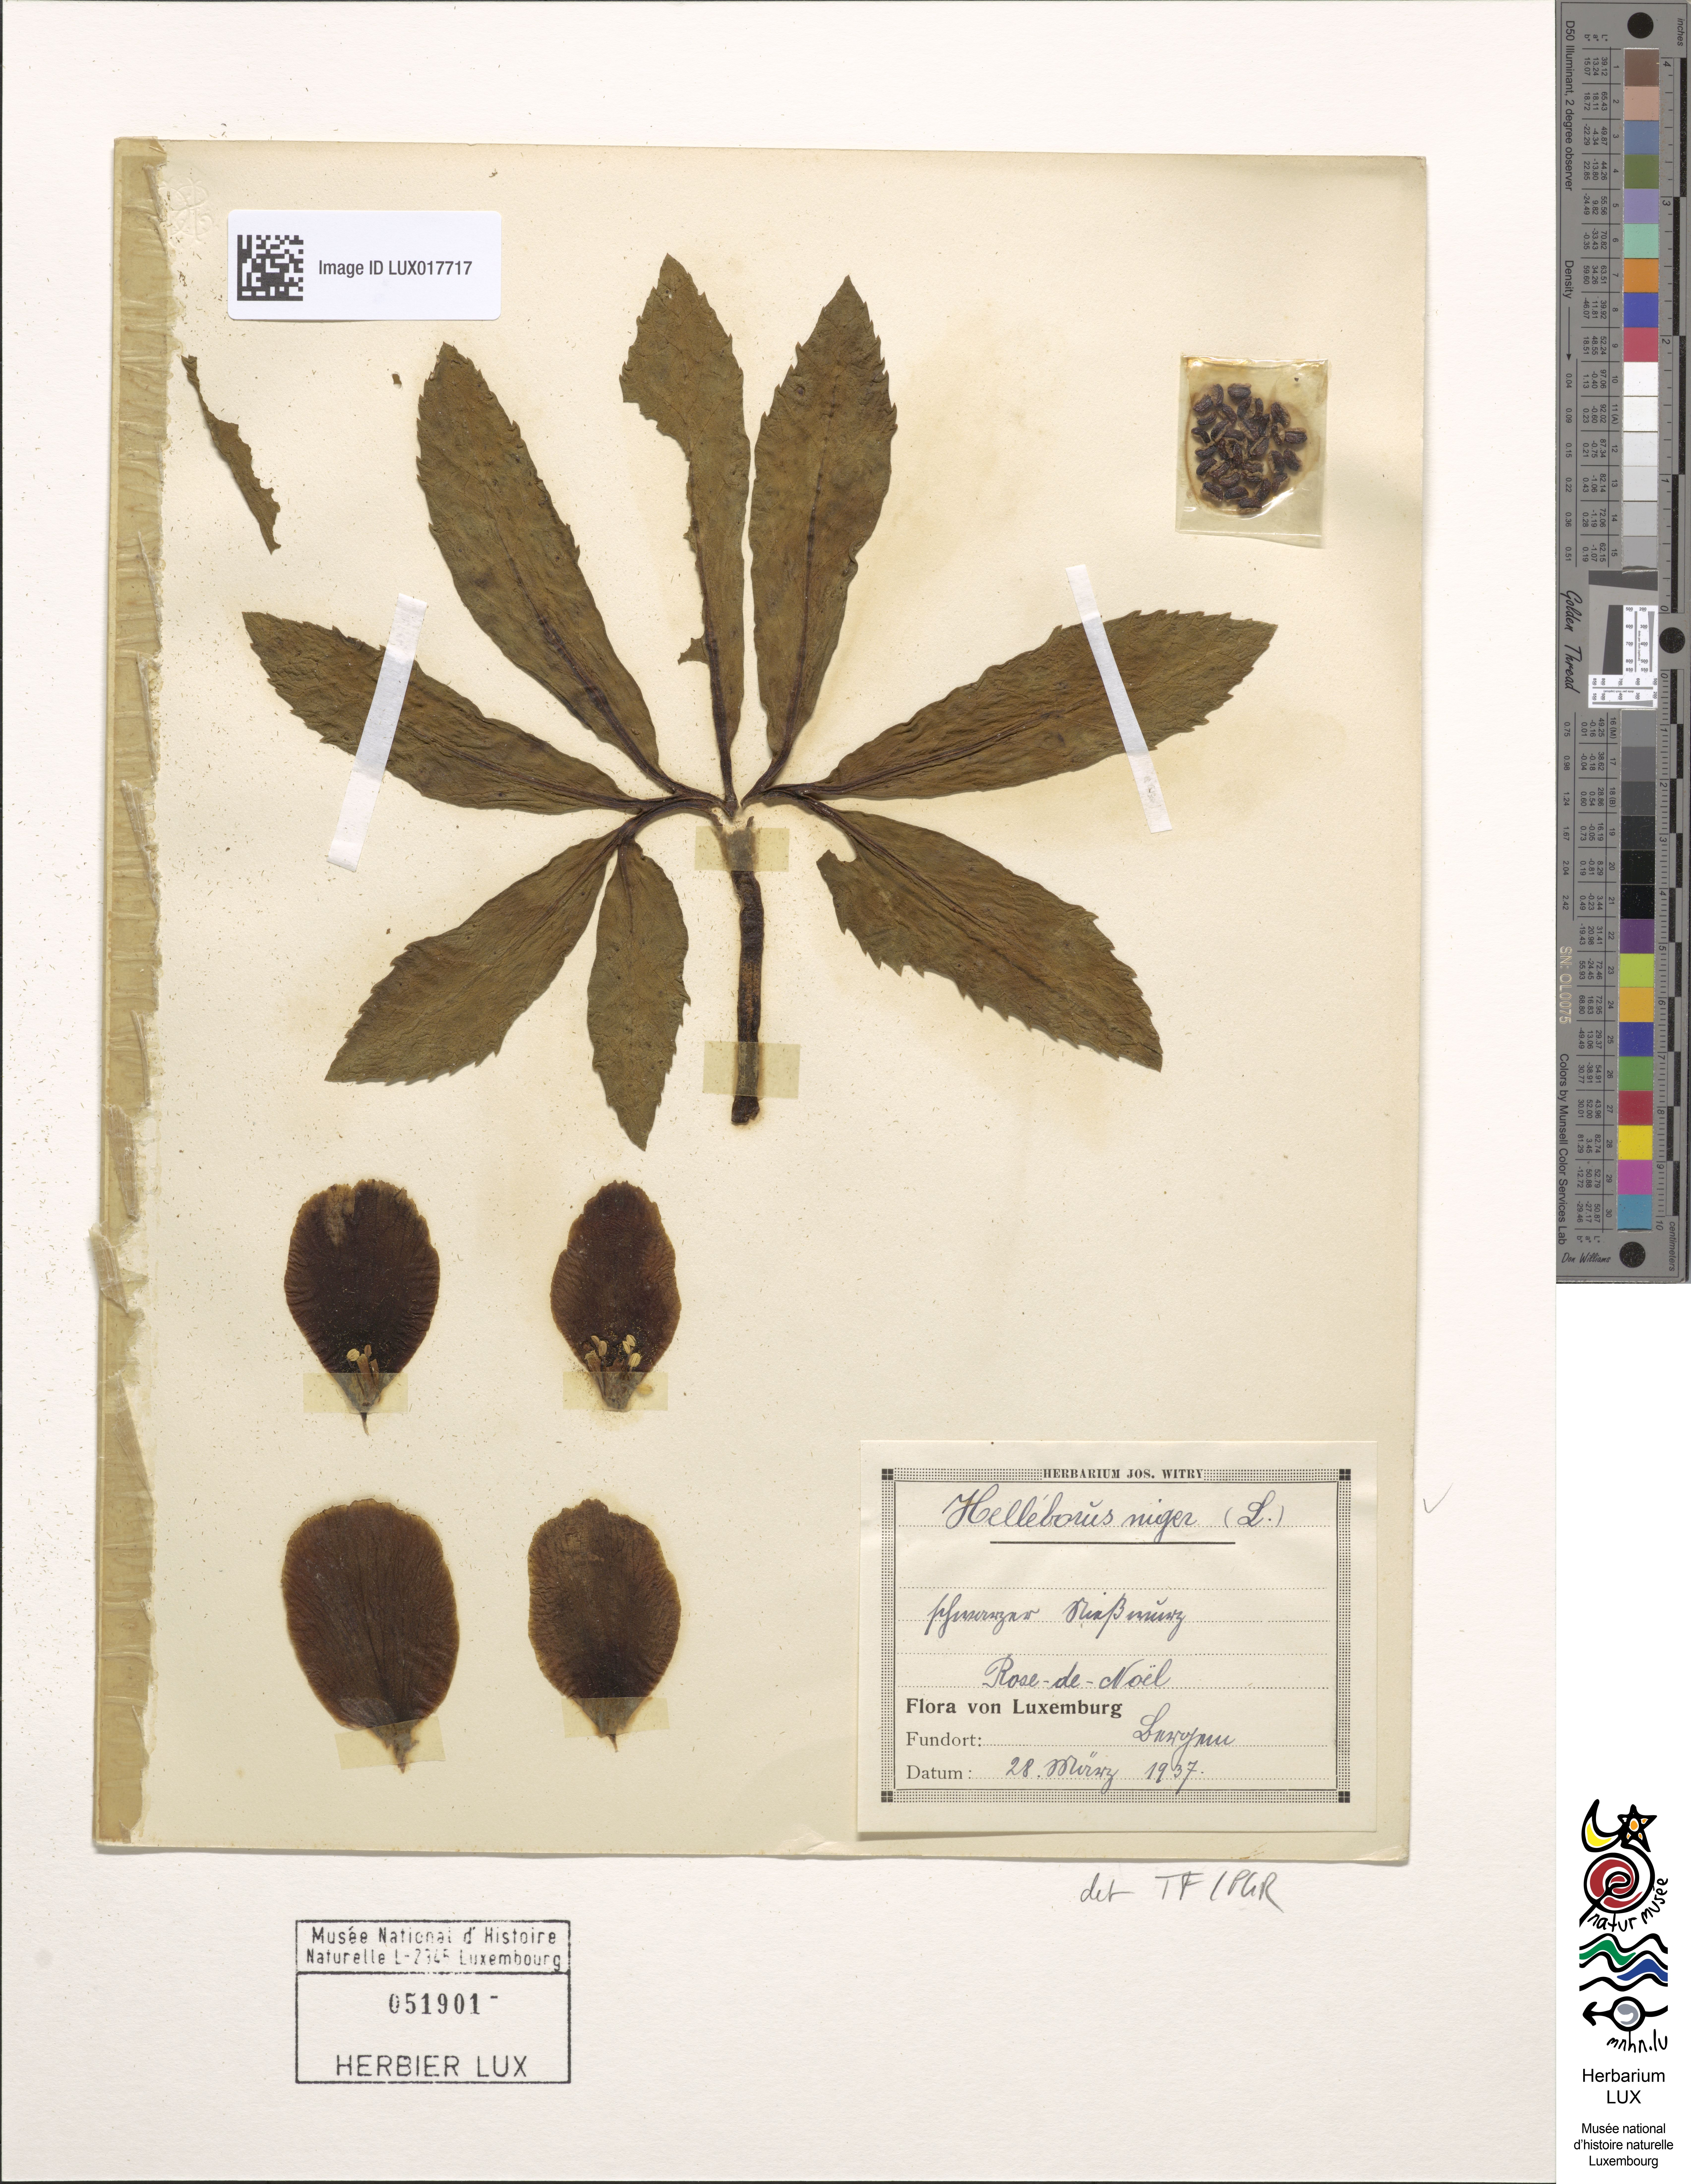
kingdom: Plantae
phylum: Tracheophyta
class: Magnoliopsida
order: Ranunculales
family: Ranunculaceae
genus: Helleborus
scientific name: Helleborus niger
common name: Black hellebore
